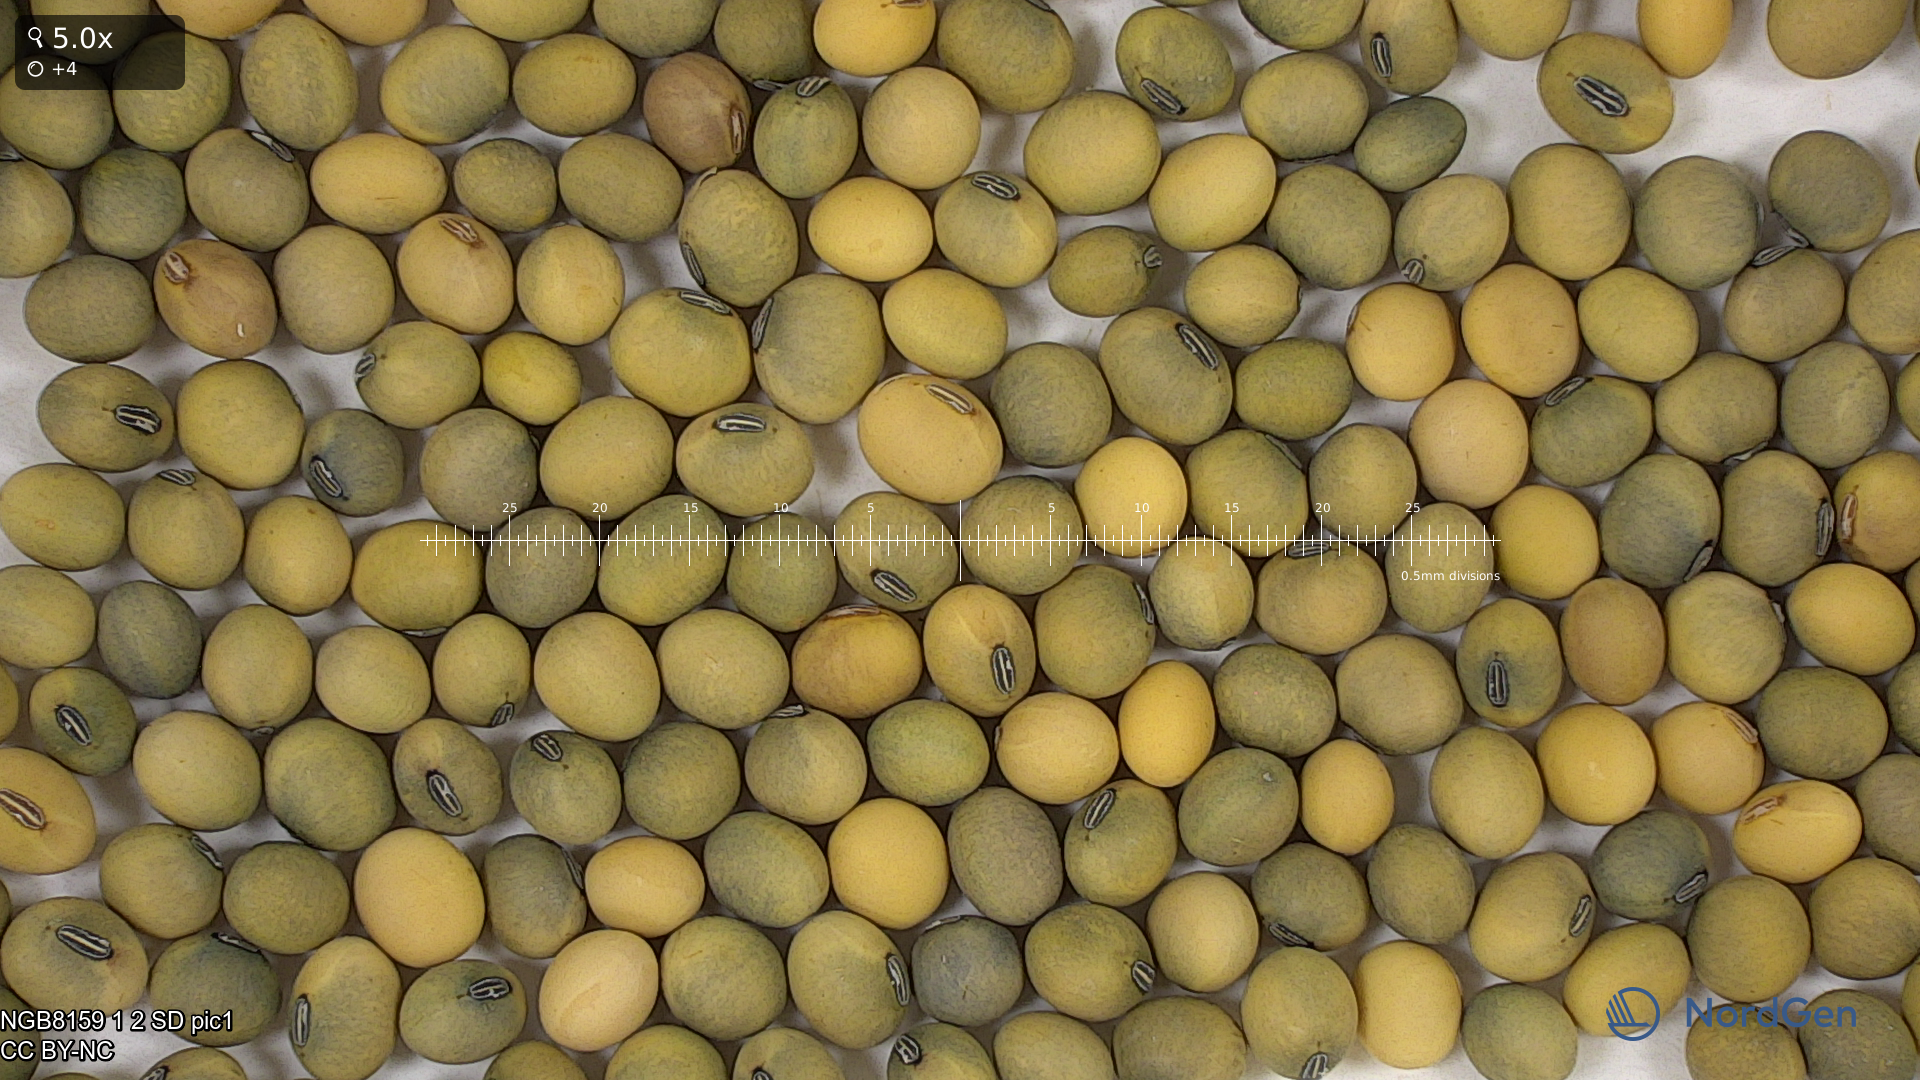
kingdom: Plantae
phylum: Tracheophyta
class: Magnoliopsida
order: Fabales
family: Fabaceae
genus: Glycine
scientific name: Glycine max
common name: Soya-bean
